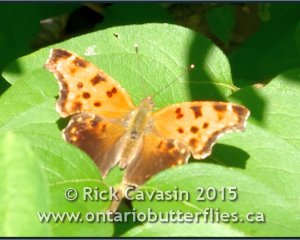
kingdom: Animalia
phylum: Arthropoda
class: Insecta
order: Lepidoptera
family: Nymphalidae
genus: Polygonia
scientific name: Polygonia comma
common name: Eastern Comma
